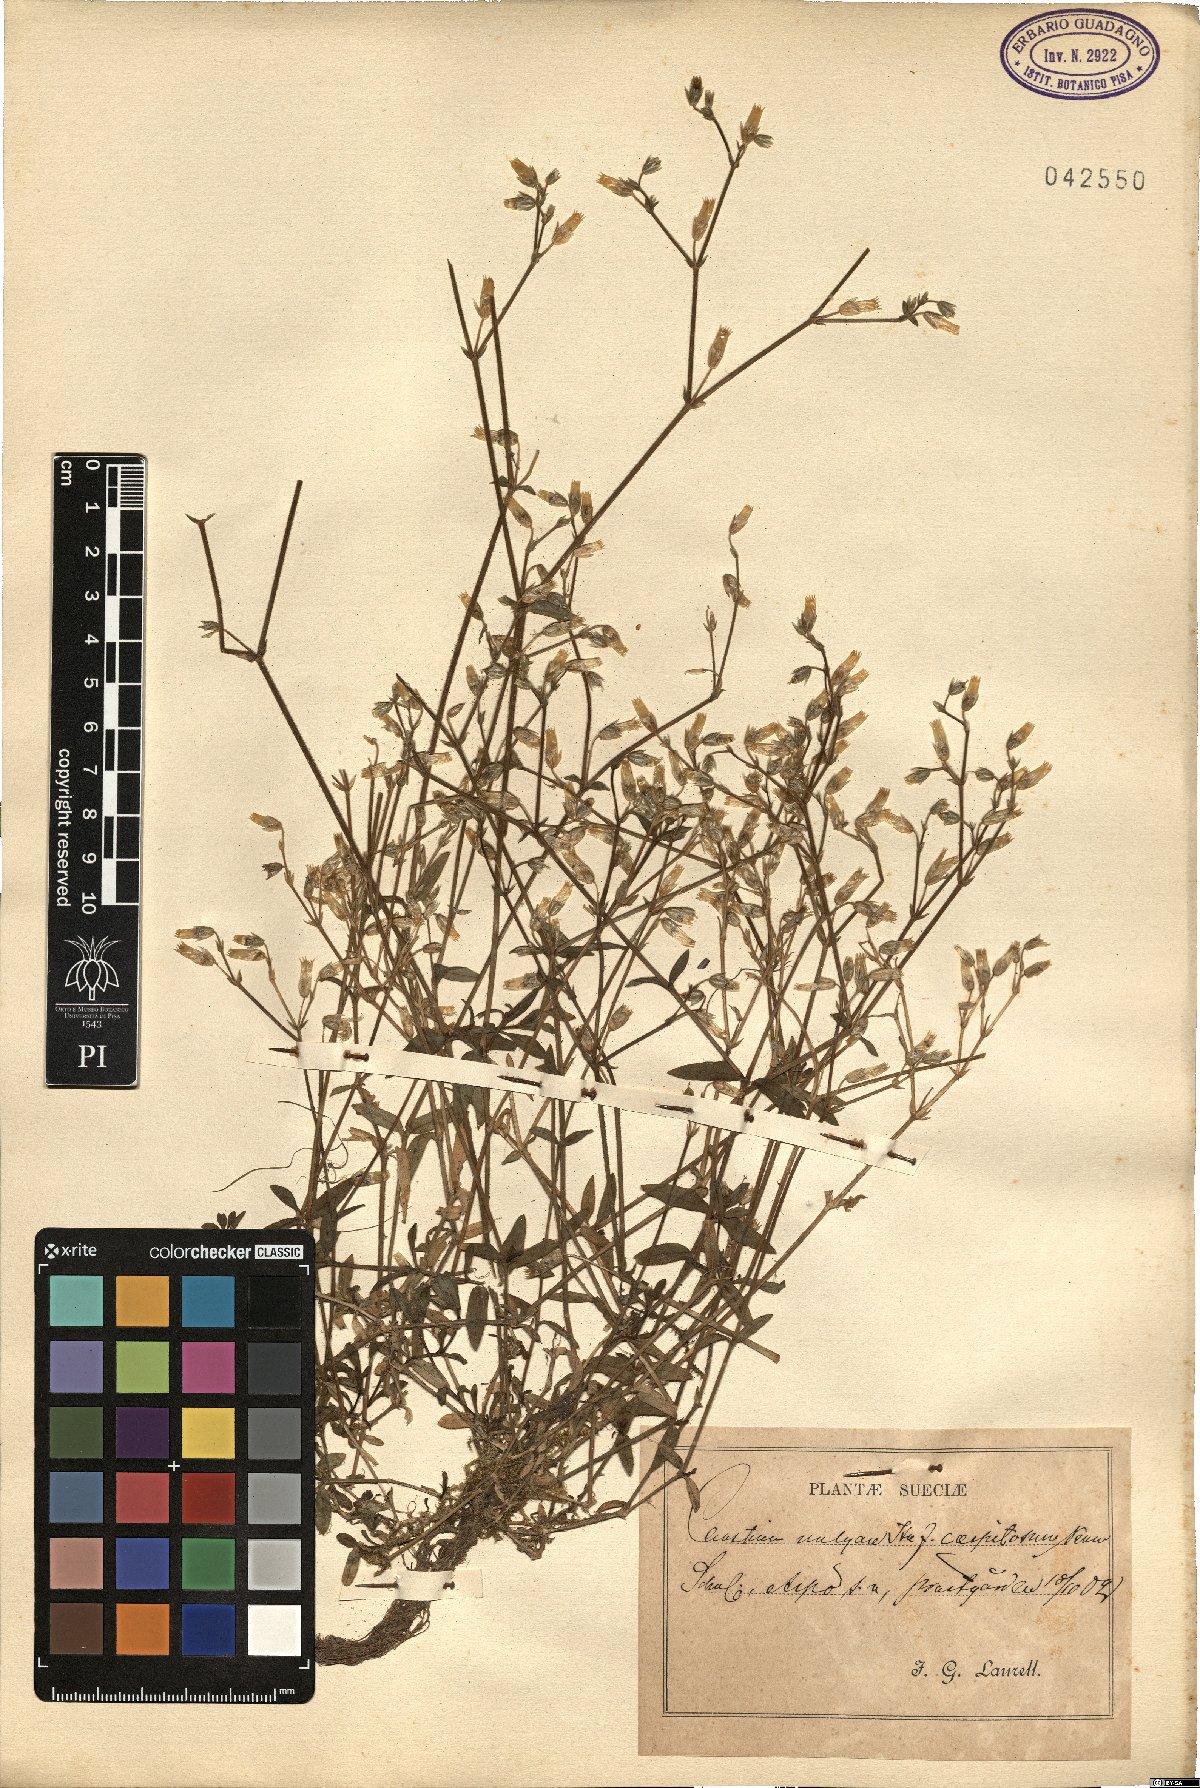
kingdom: Plantae
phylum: Tracheophyta
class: Magnoliopsida
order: Caryophyllales
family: Caryophyllaceae
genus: Cerastium
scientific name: Cerastium holosteoides
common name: Big chickweed
